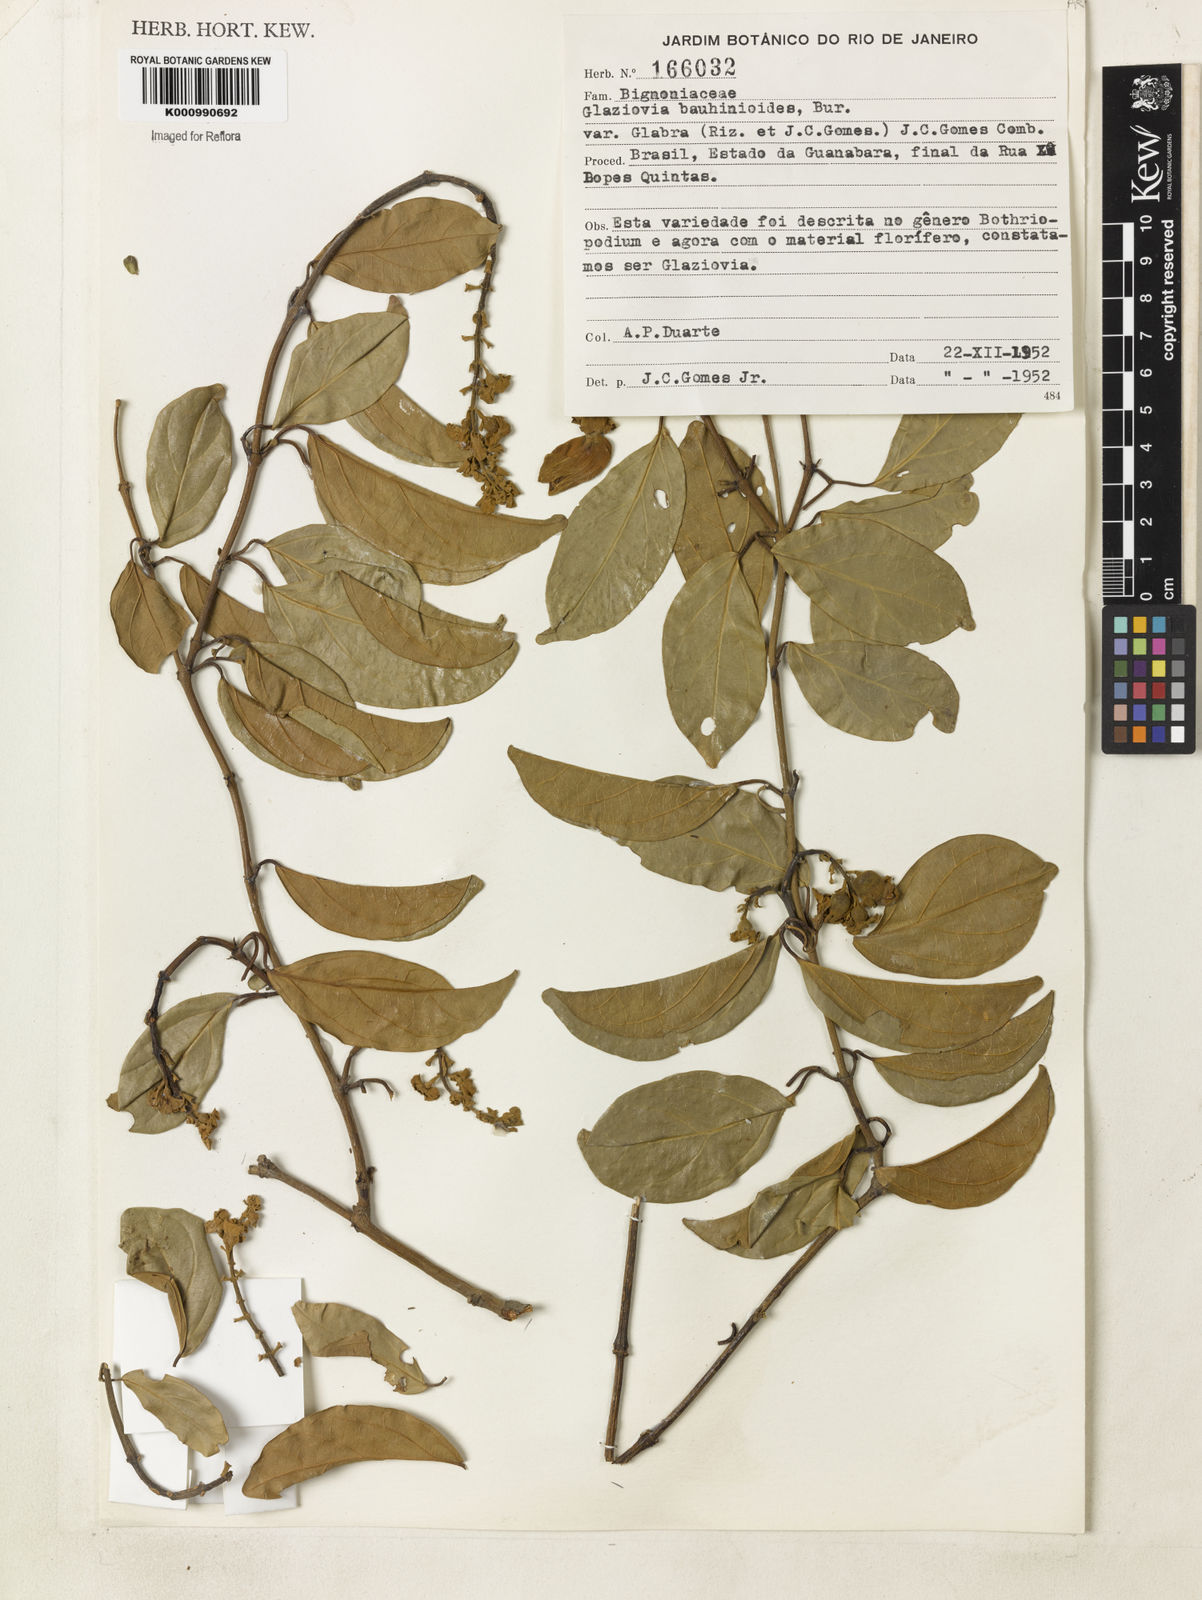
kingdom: Plantae
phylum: Tracheophyta
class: Magnoliopsida
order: Lamiales
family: Bignoniaceae
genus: Amphilophium
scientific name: Amphilophium bauhinioides
